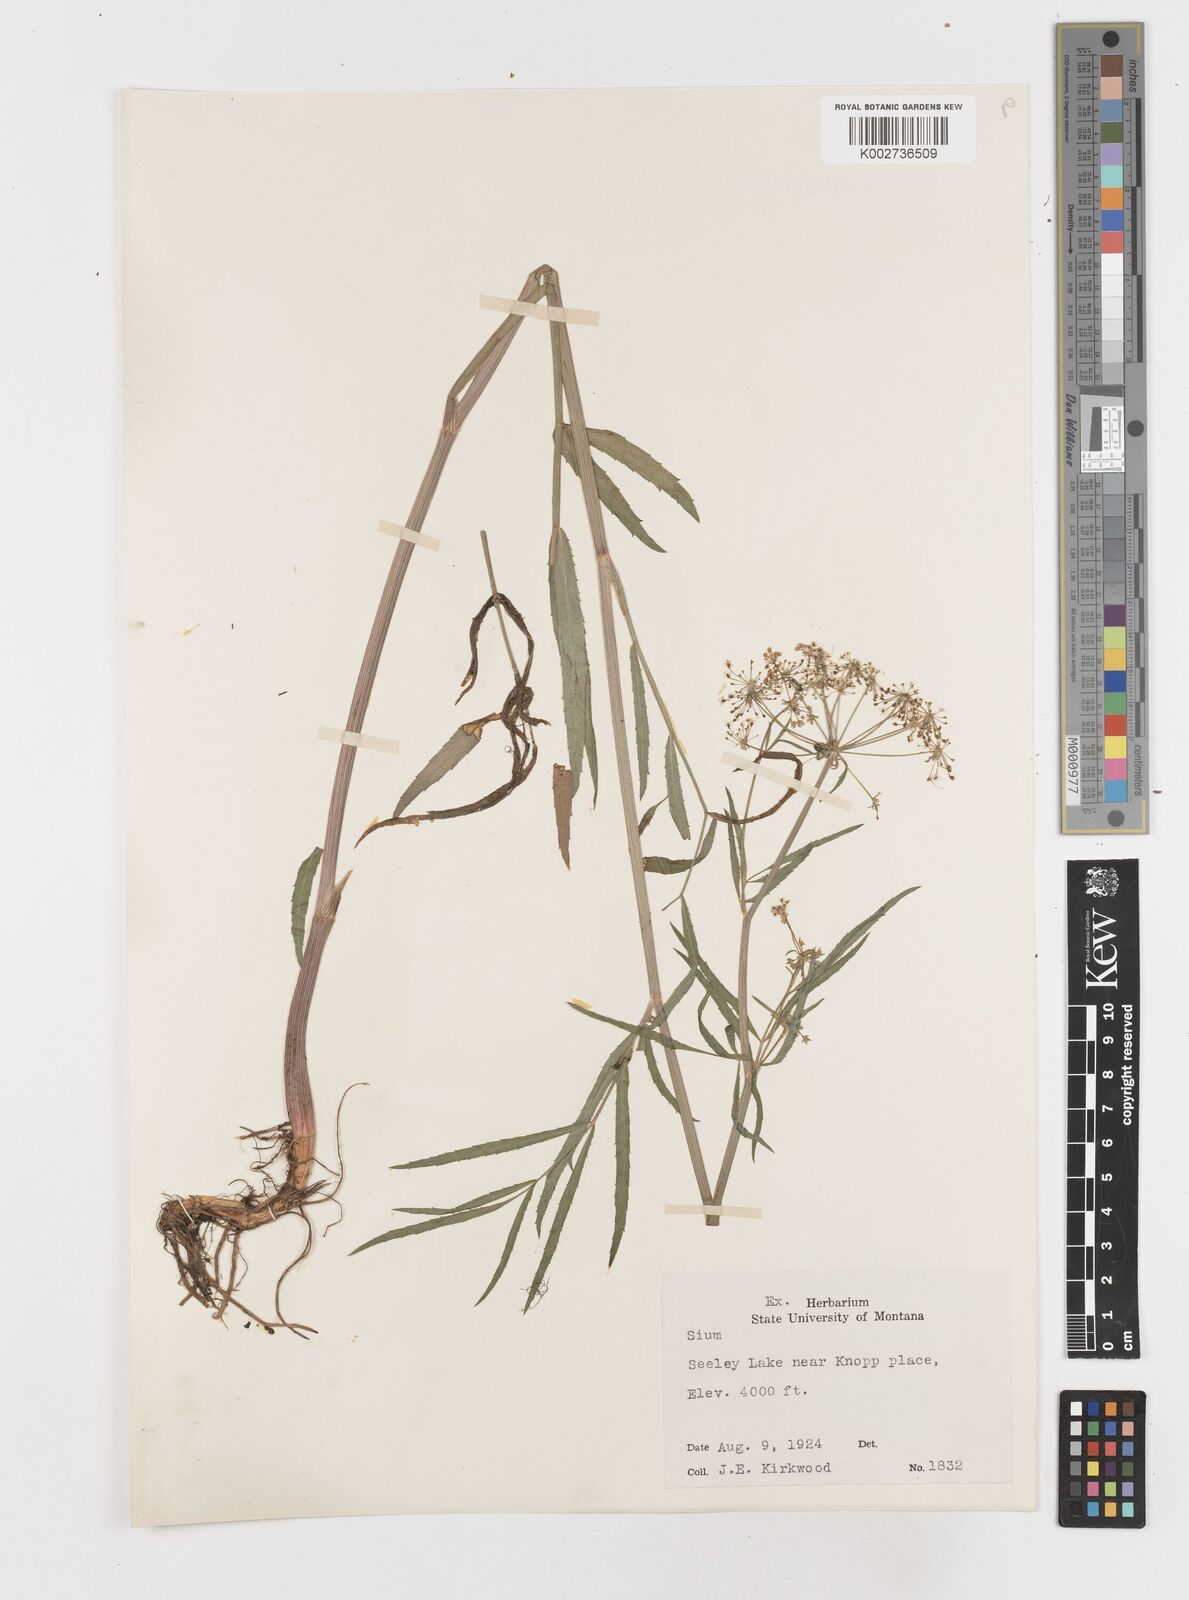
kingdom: Plantae
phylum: Tracheophyta
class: Magnoliopsida
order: Apiales
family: Apiaceae
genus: Sium
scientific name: Sium
